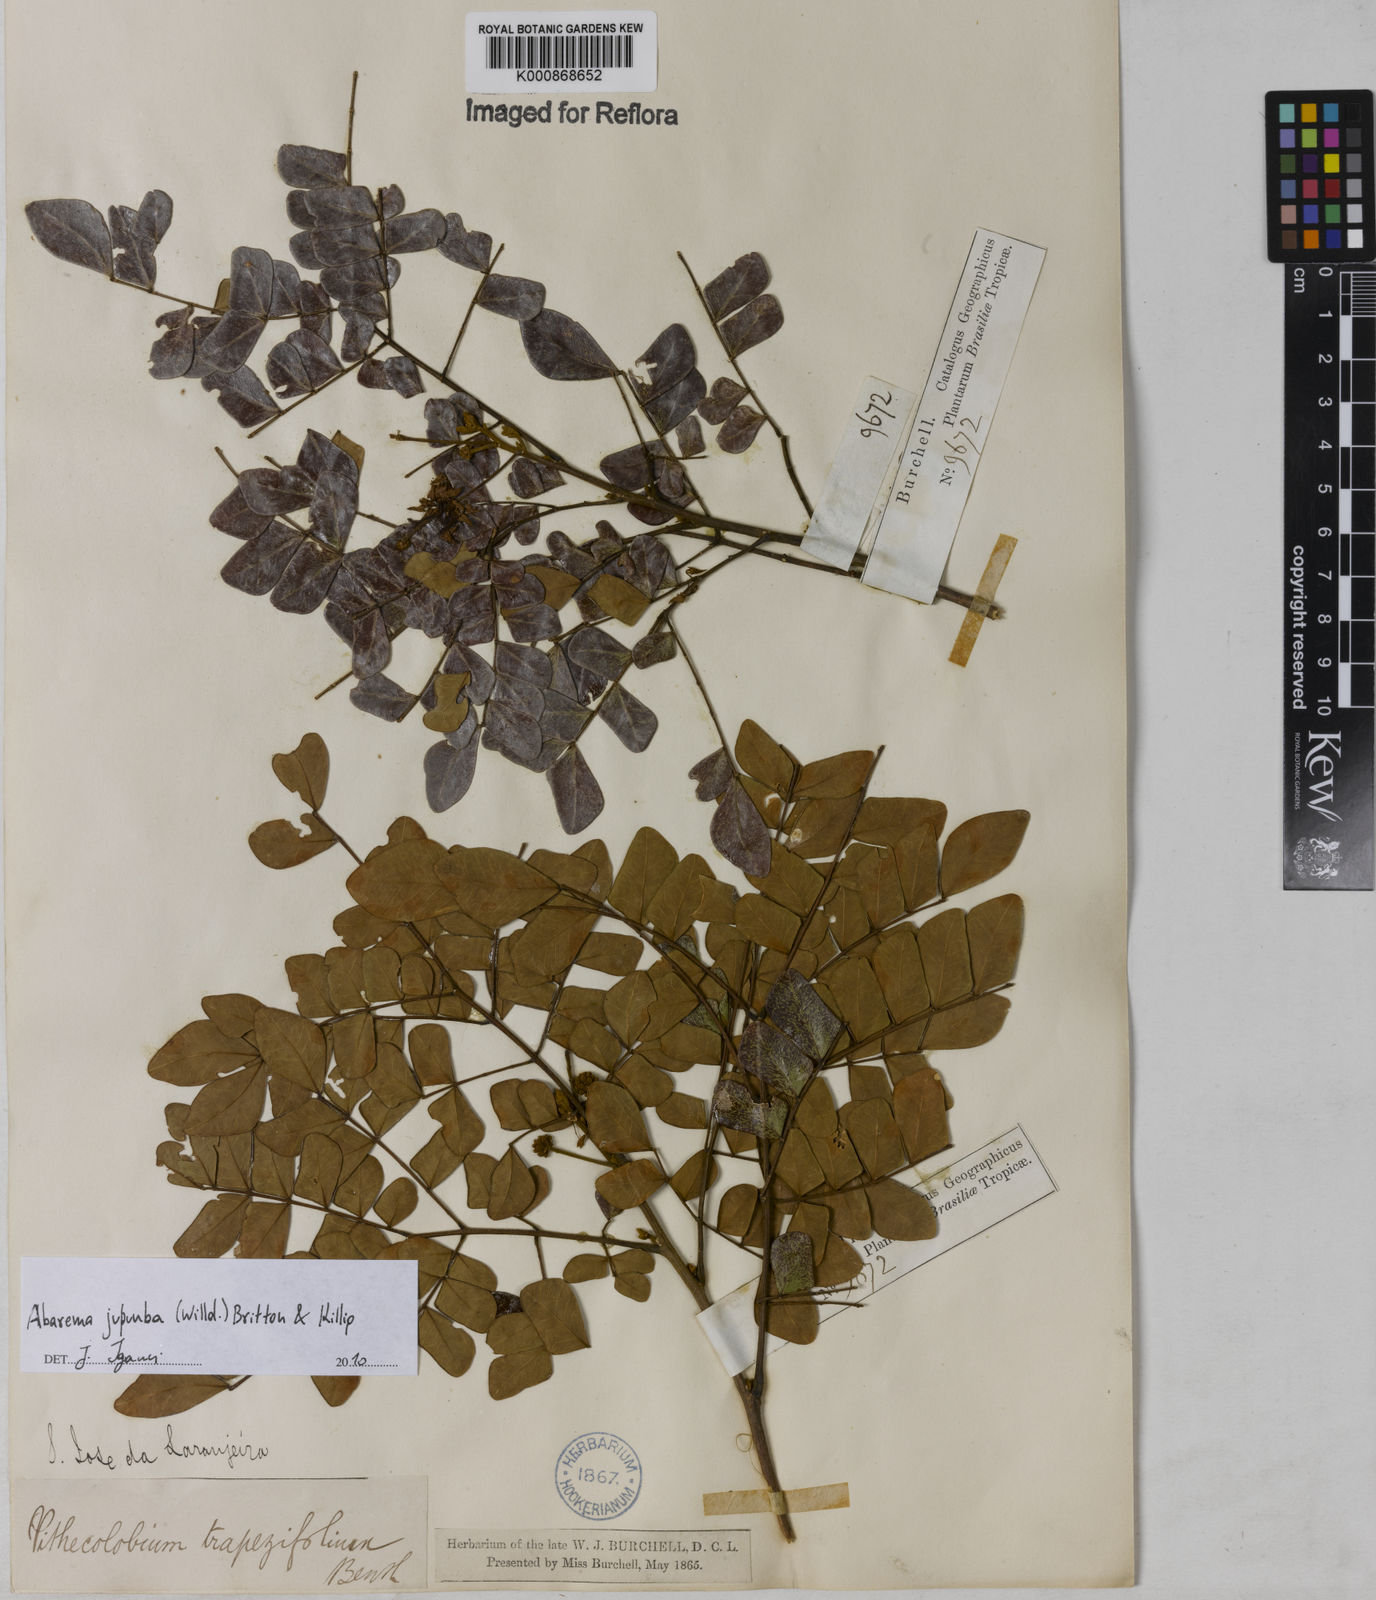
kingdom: Plantae
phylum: Tracheophyta
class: Magnoliopsida
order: Fabales
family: Fabaceae
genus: Jupunba
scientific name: Jupunba trapezifolia
